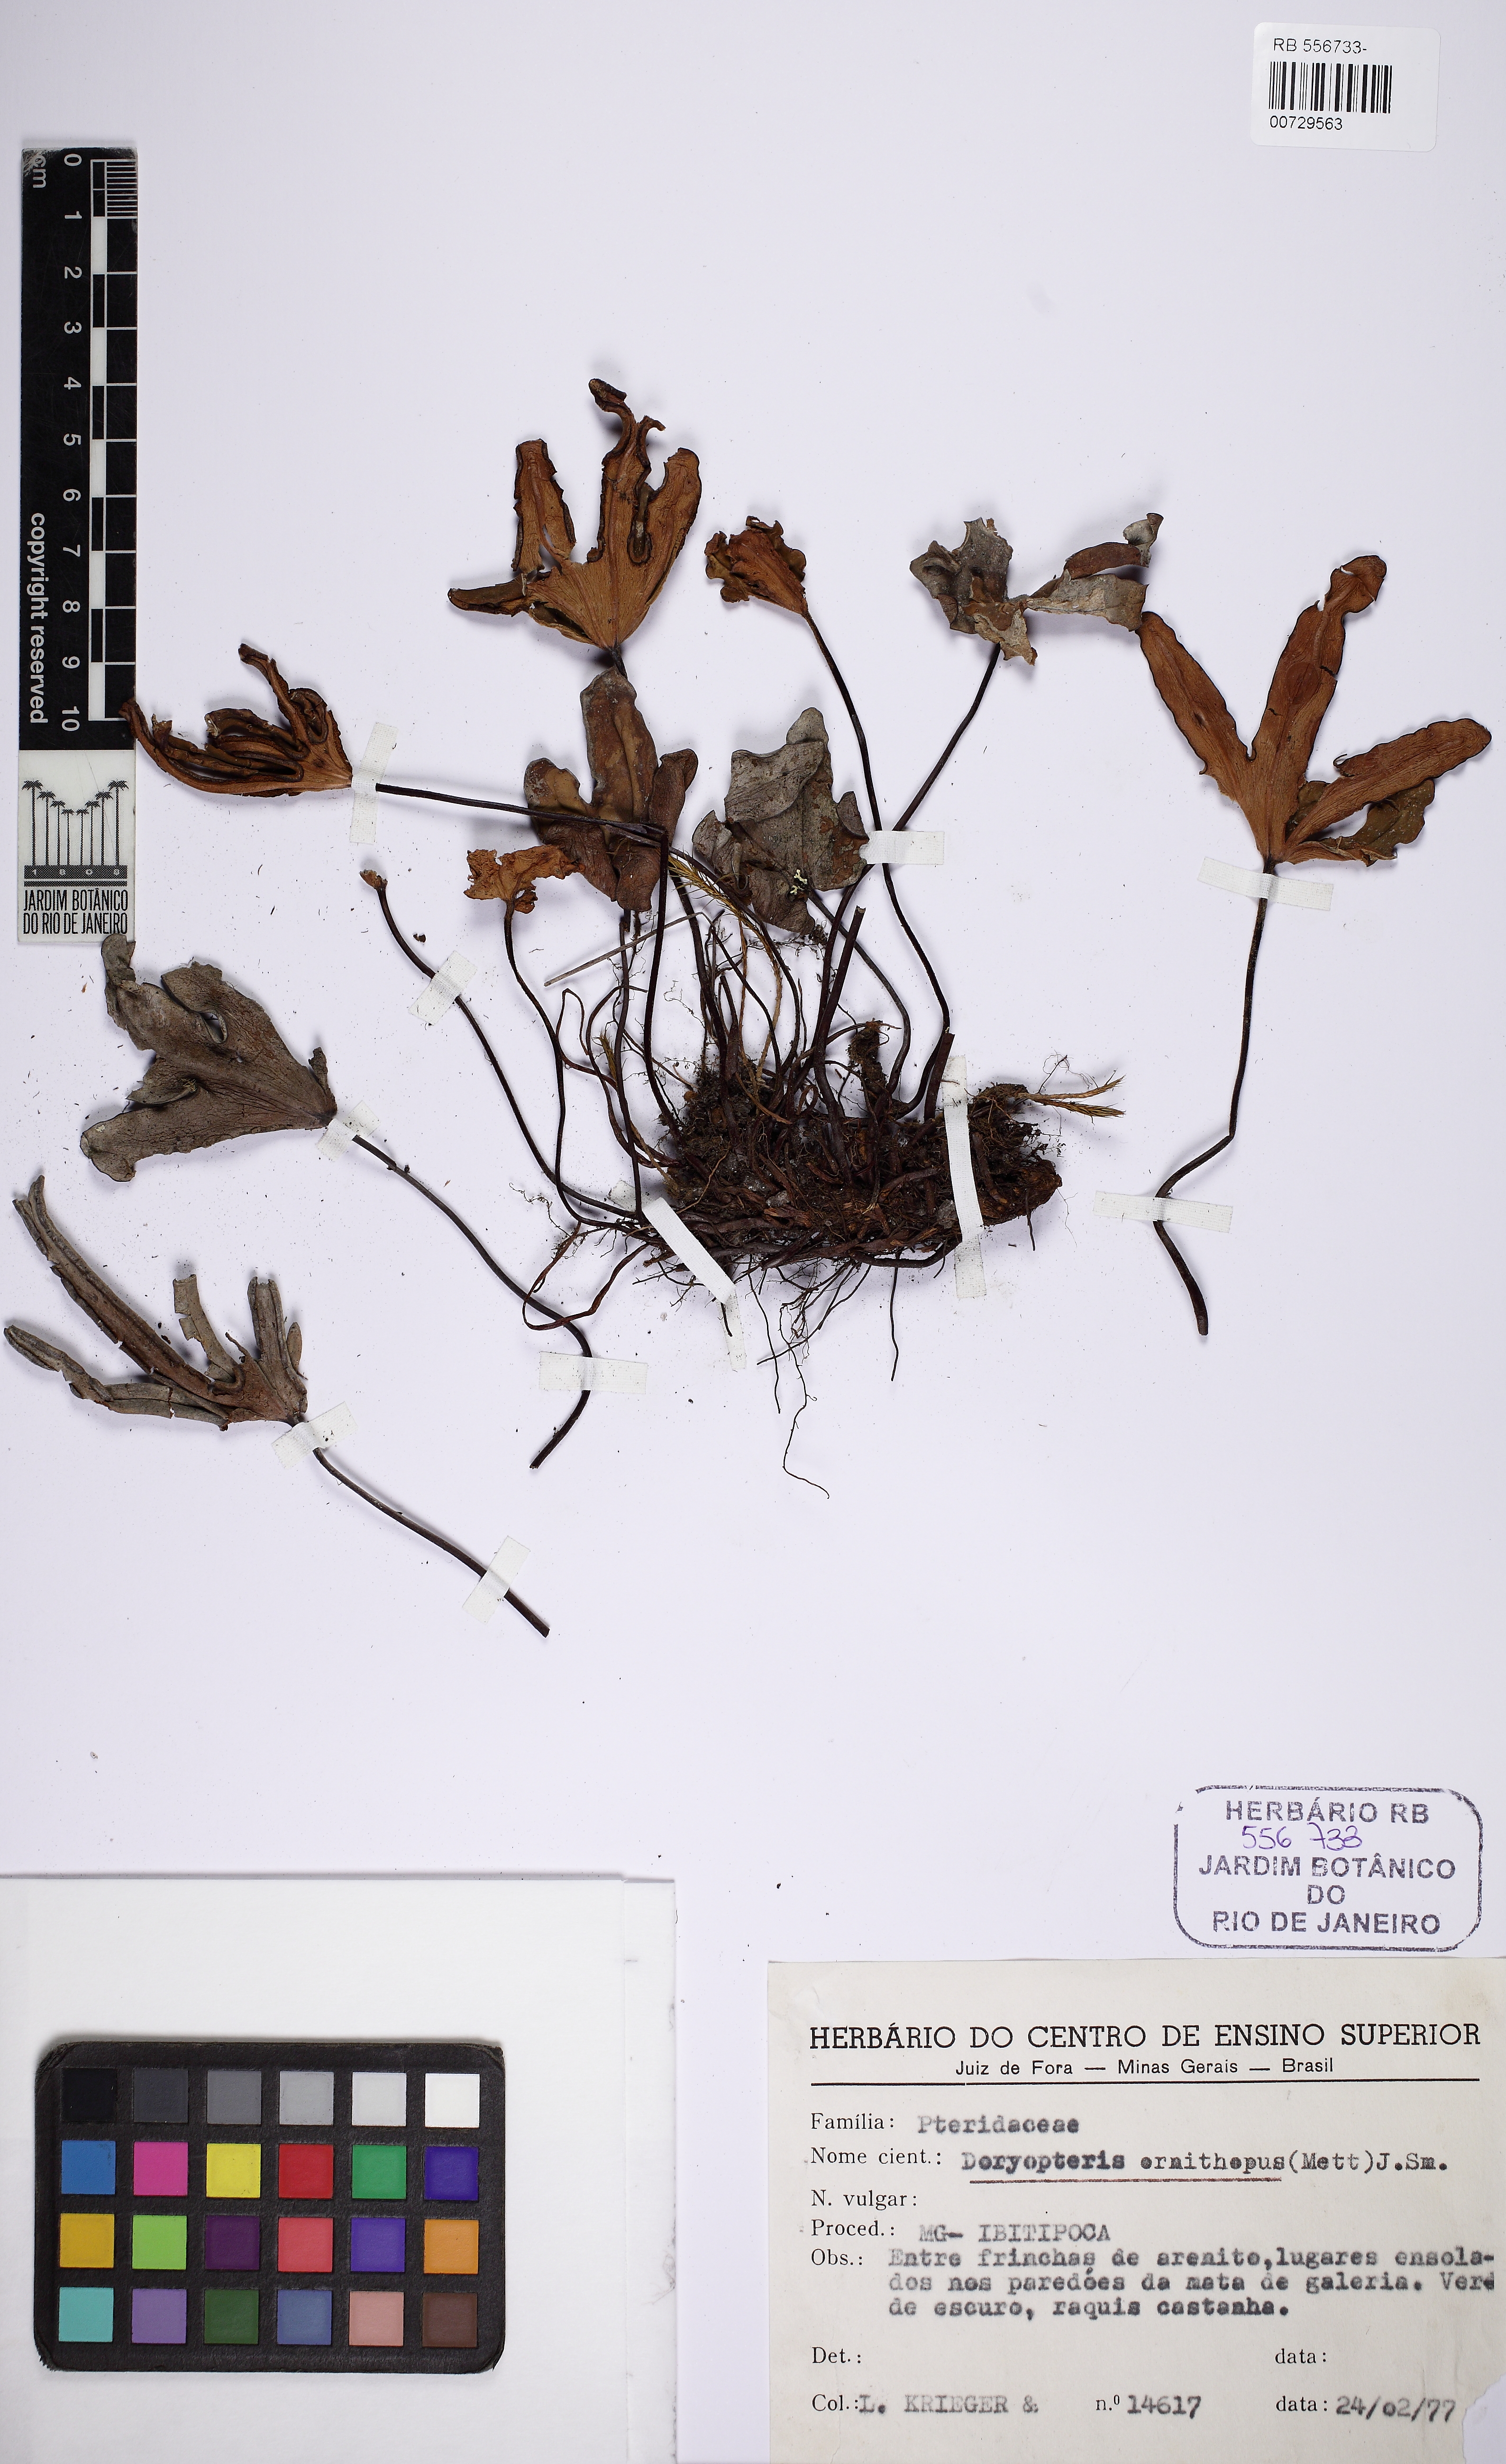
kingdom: Plantae
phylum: Tracheophyta
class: Polypodiopsida
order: Polypodiales
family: Pteridaceae
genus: Lytoneuron
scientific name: Lytoneuron ornithopus
